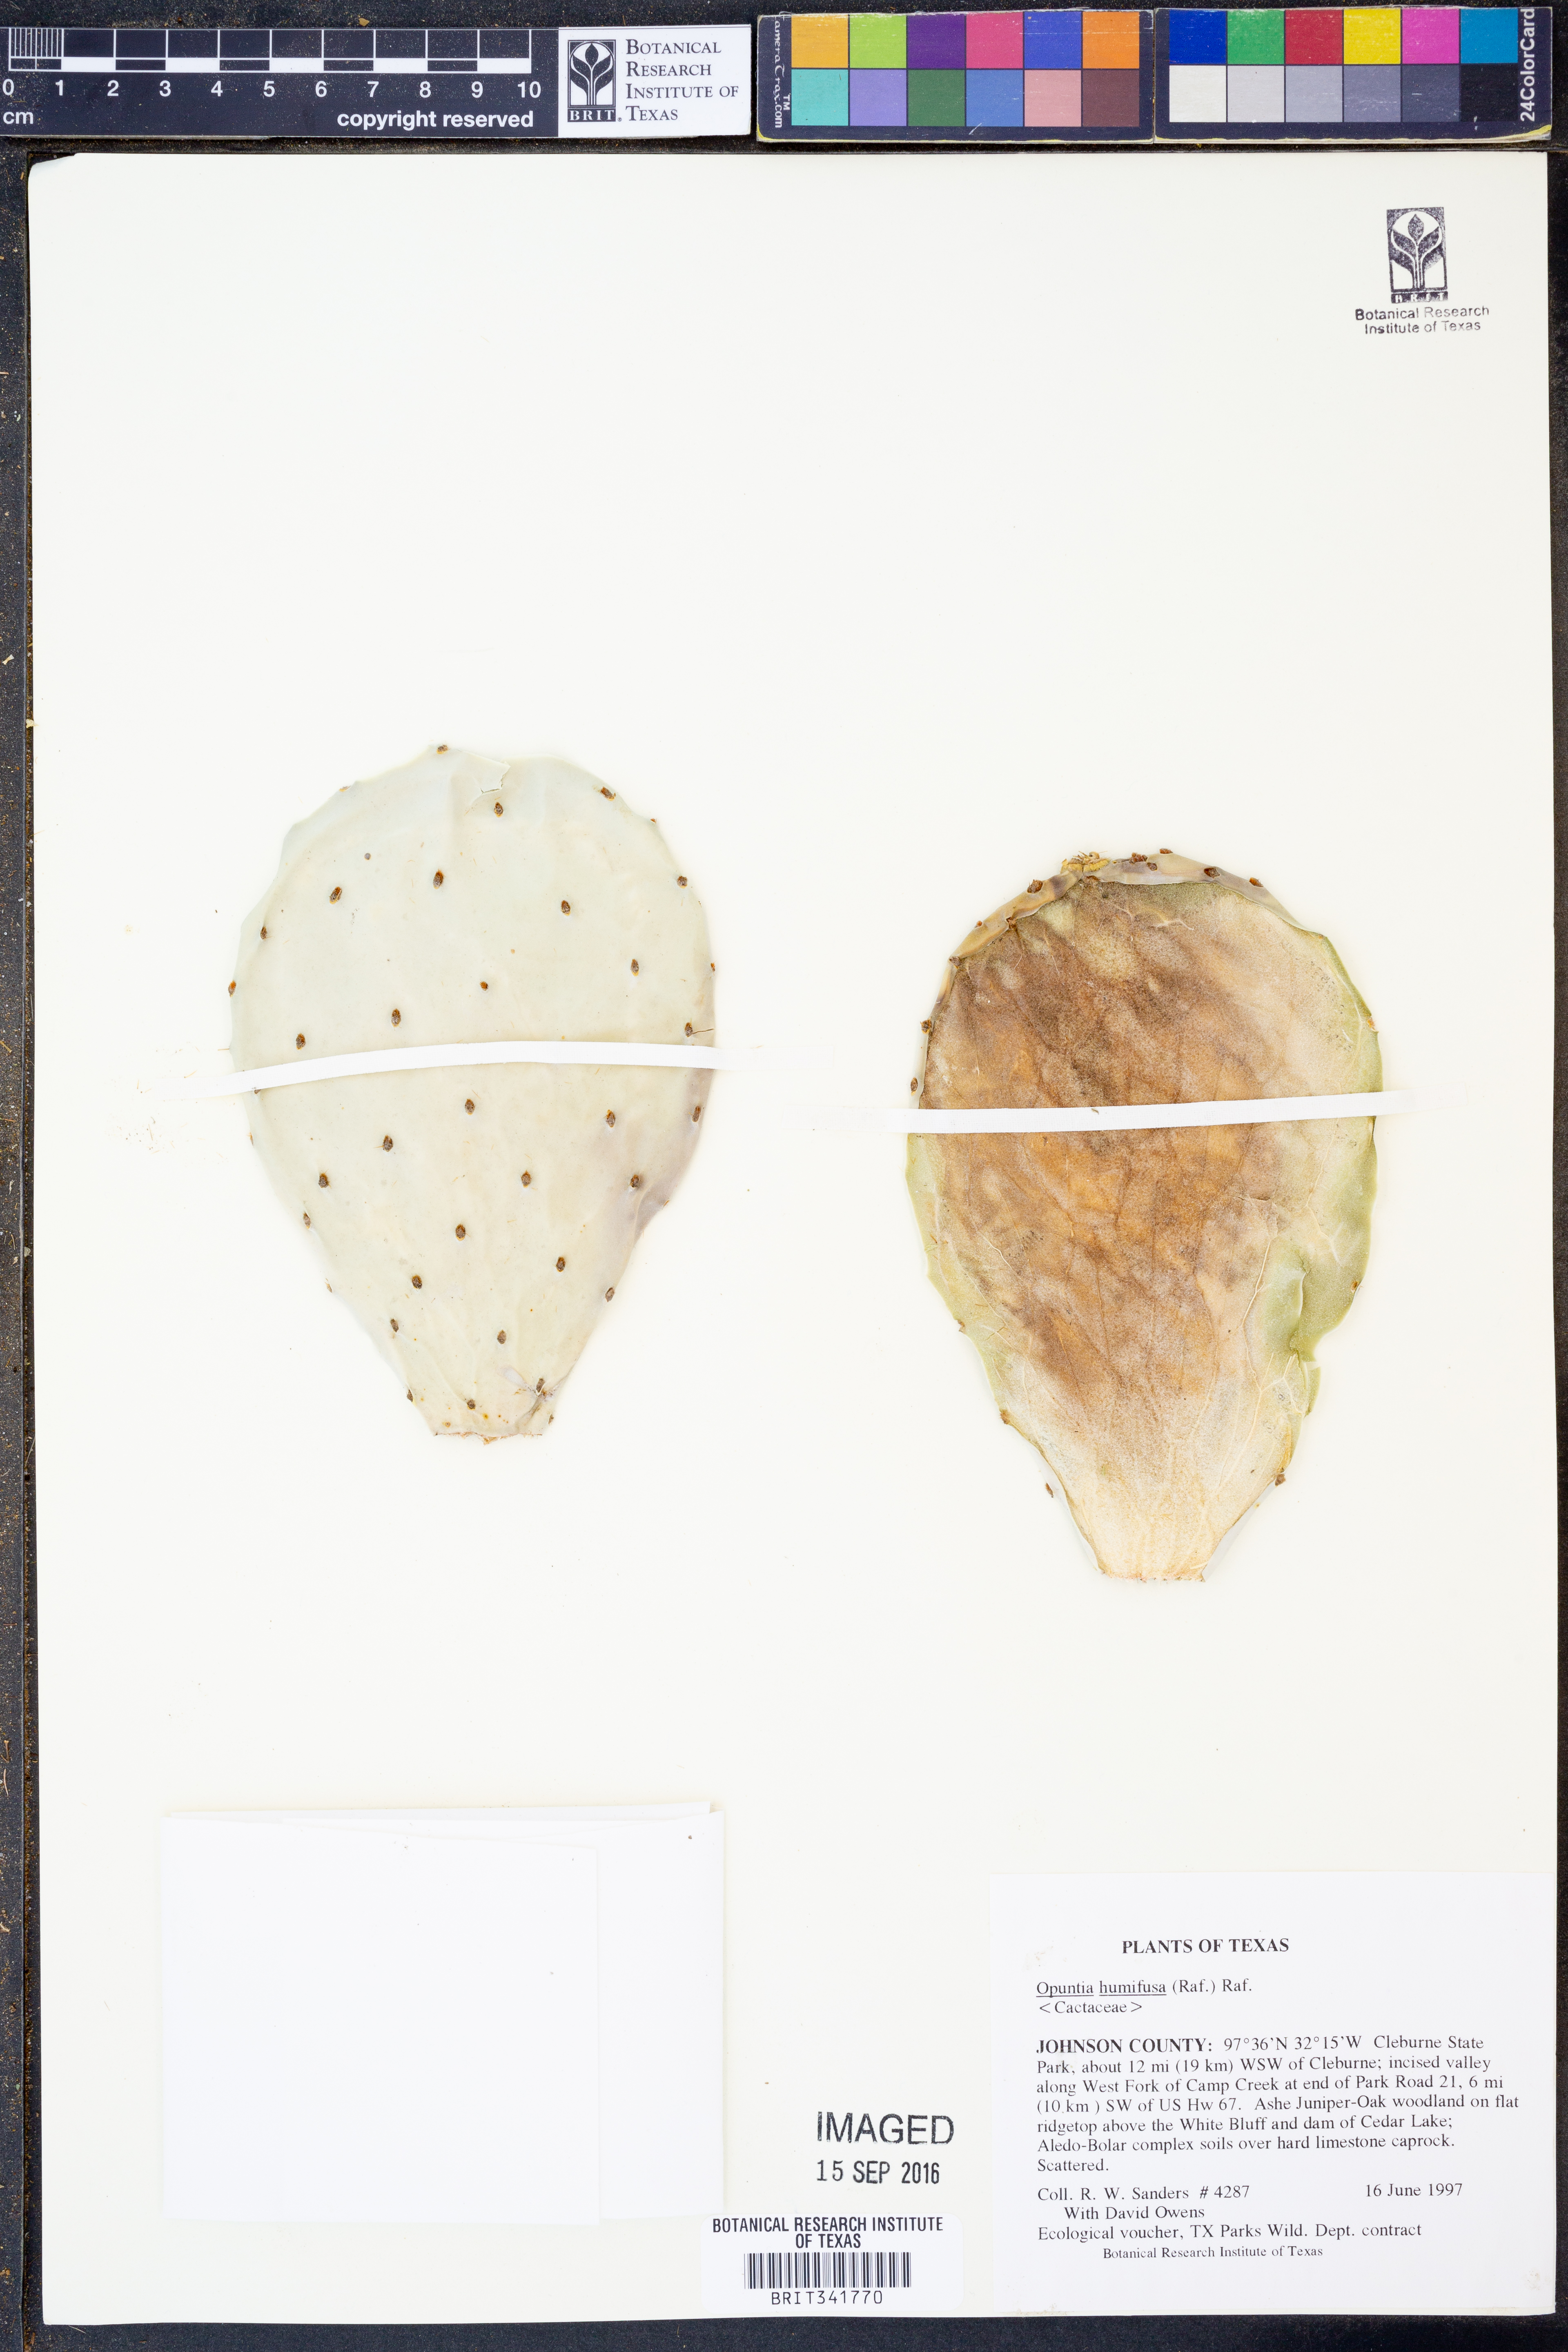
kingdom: Plantae
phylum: Tracheophyta
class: Magnoliopsida
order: Caryophyllales
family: Cactaceae
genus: Opuntia
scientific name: Opuntia humifusa
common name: Eastern prickly-pear
